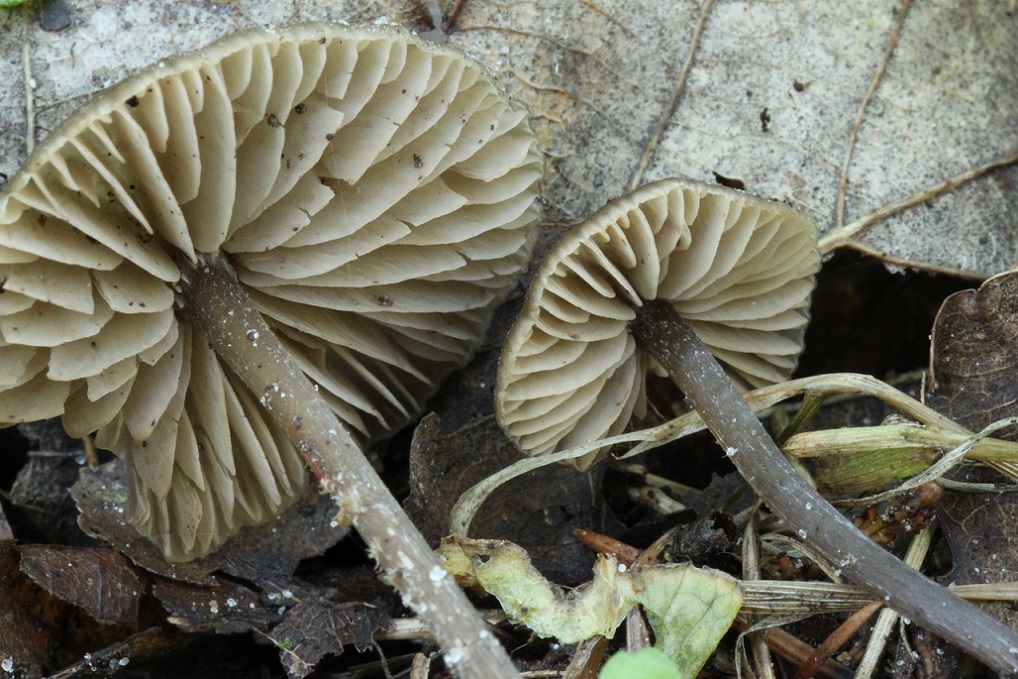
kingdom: Fungi
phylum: Basidiomycota
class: Agaricomycetes
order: Agaricales
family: Entolomataceae
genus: Entoloma
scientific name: Entoloma minutum
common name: liden rødblad
